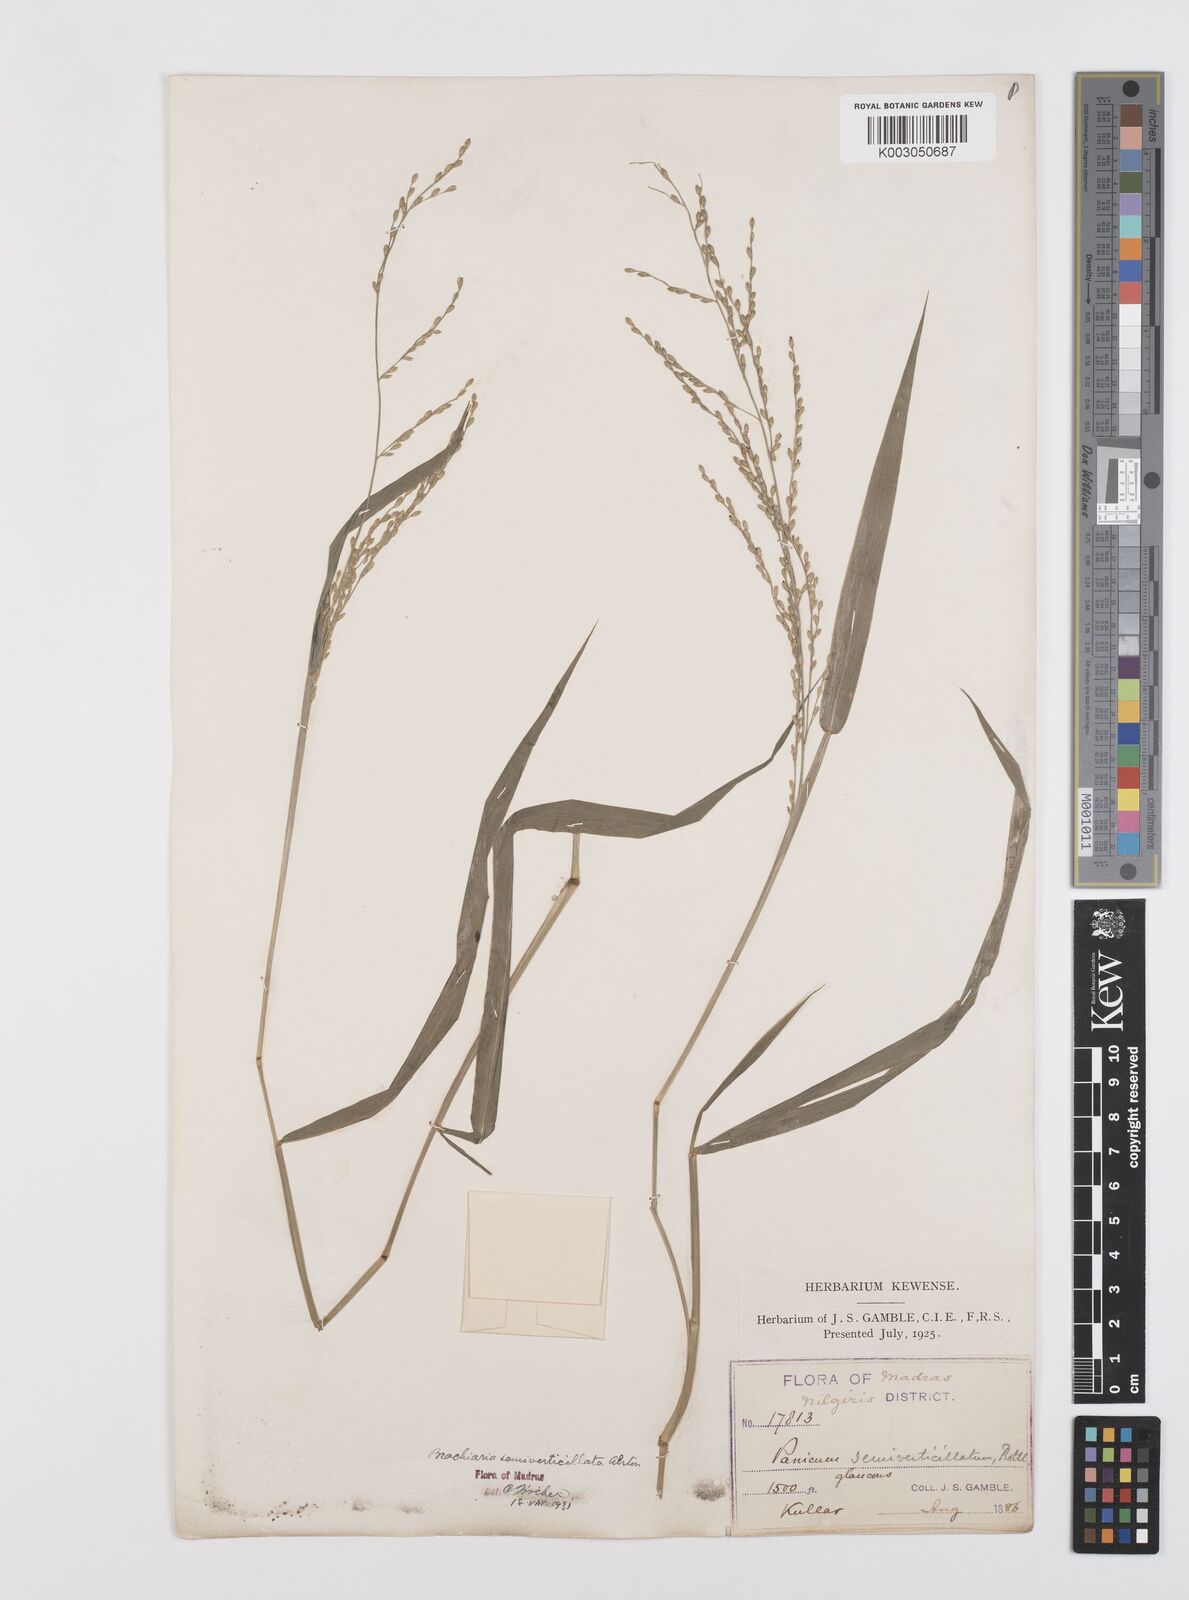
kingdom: Plantae
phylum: Tracheophyta
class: Liliopsida
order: Poales
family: Poaceae
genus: Urochloa
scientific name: Urochloa Brachiaria semiverticillata
